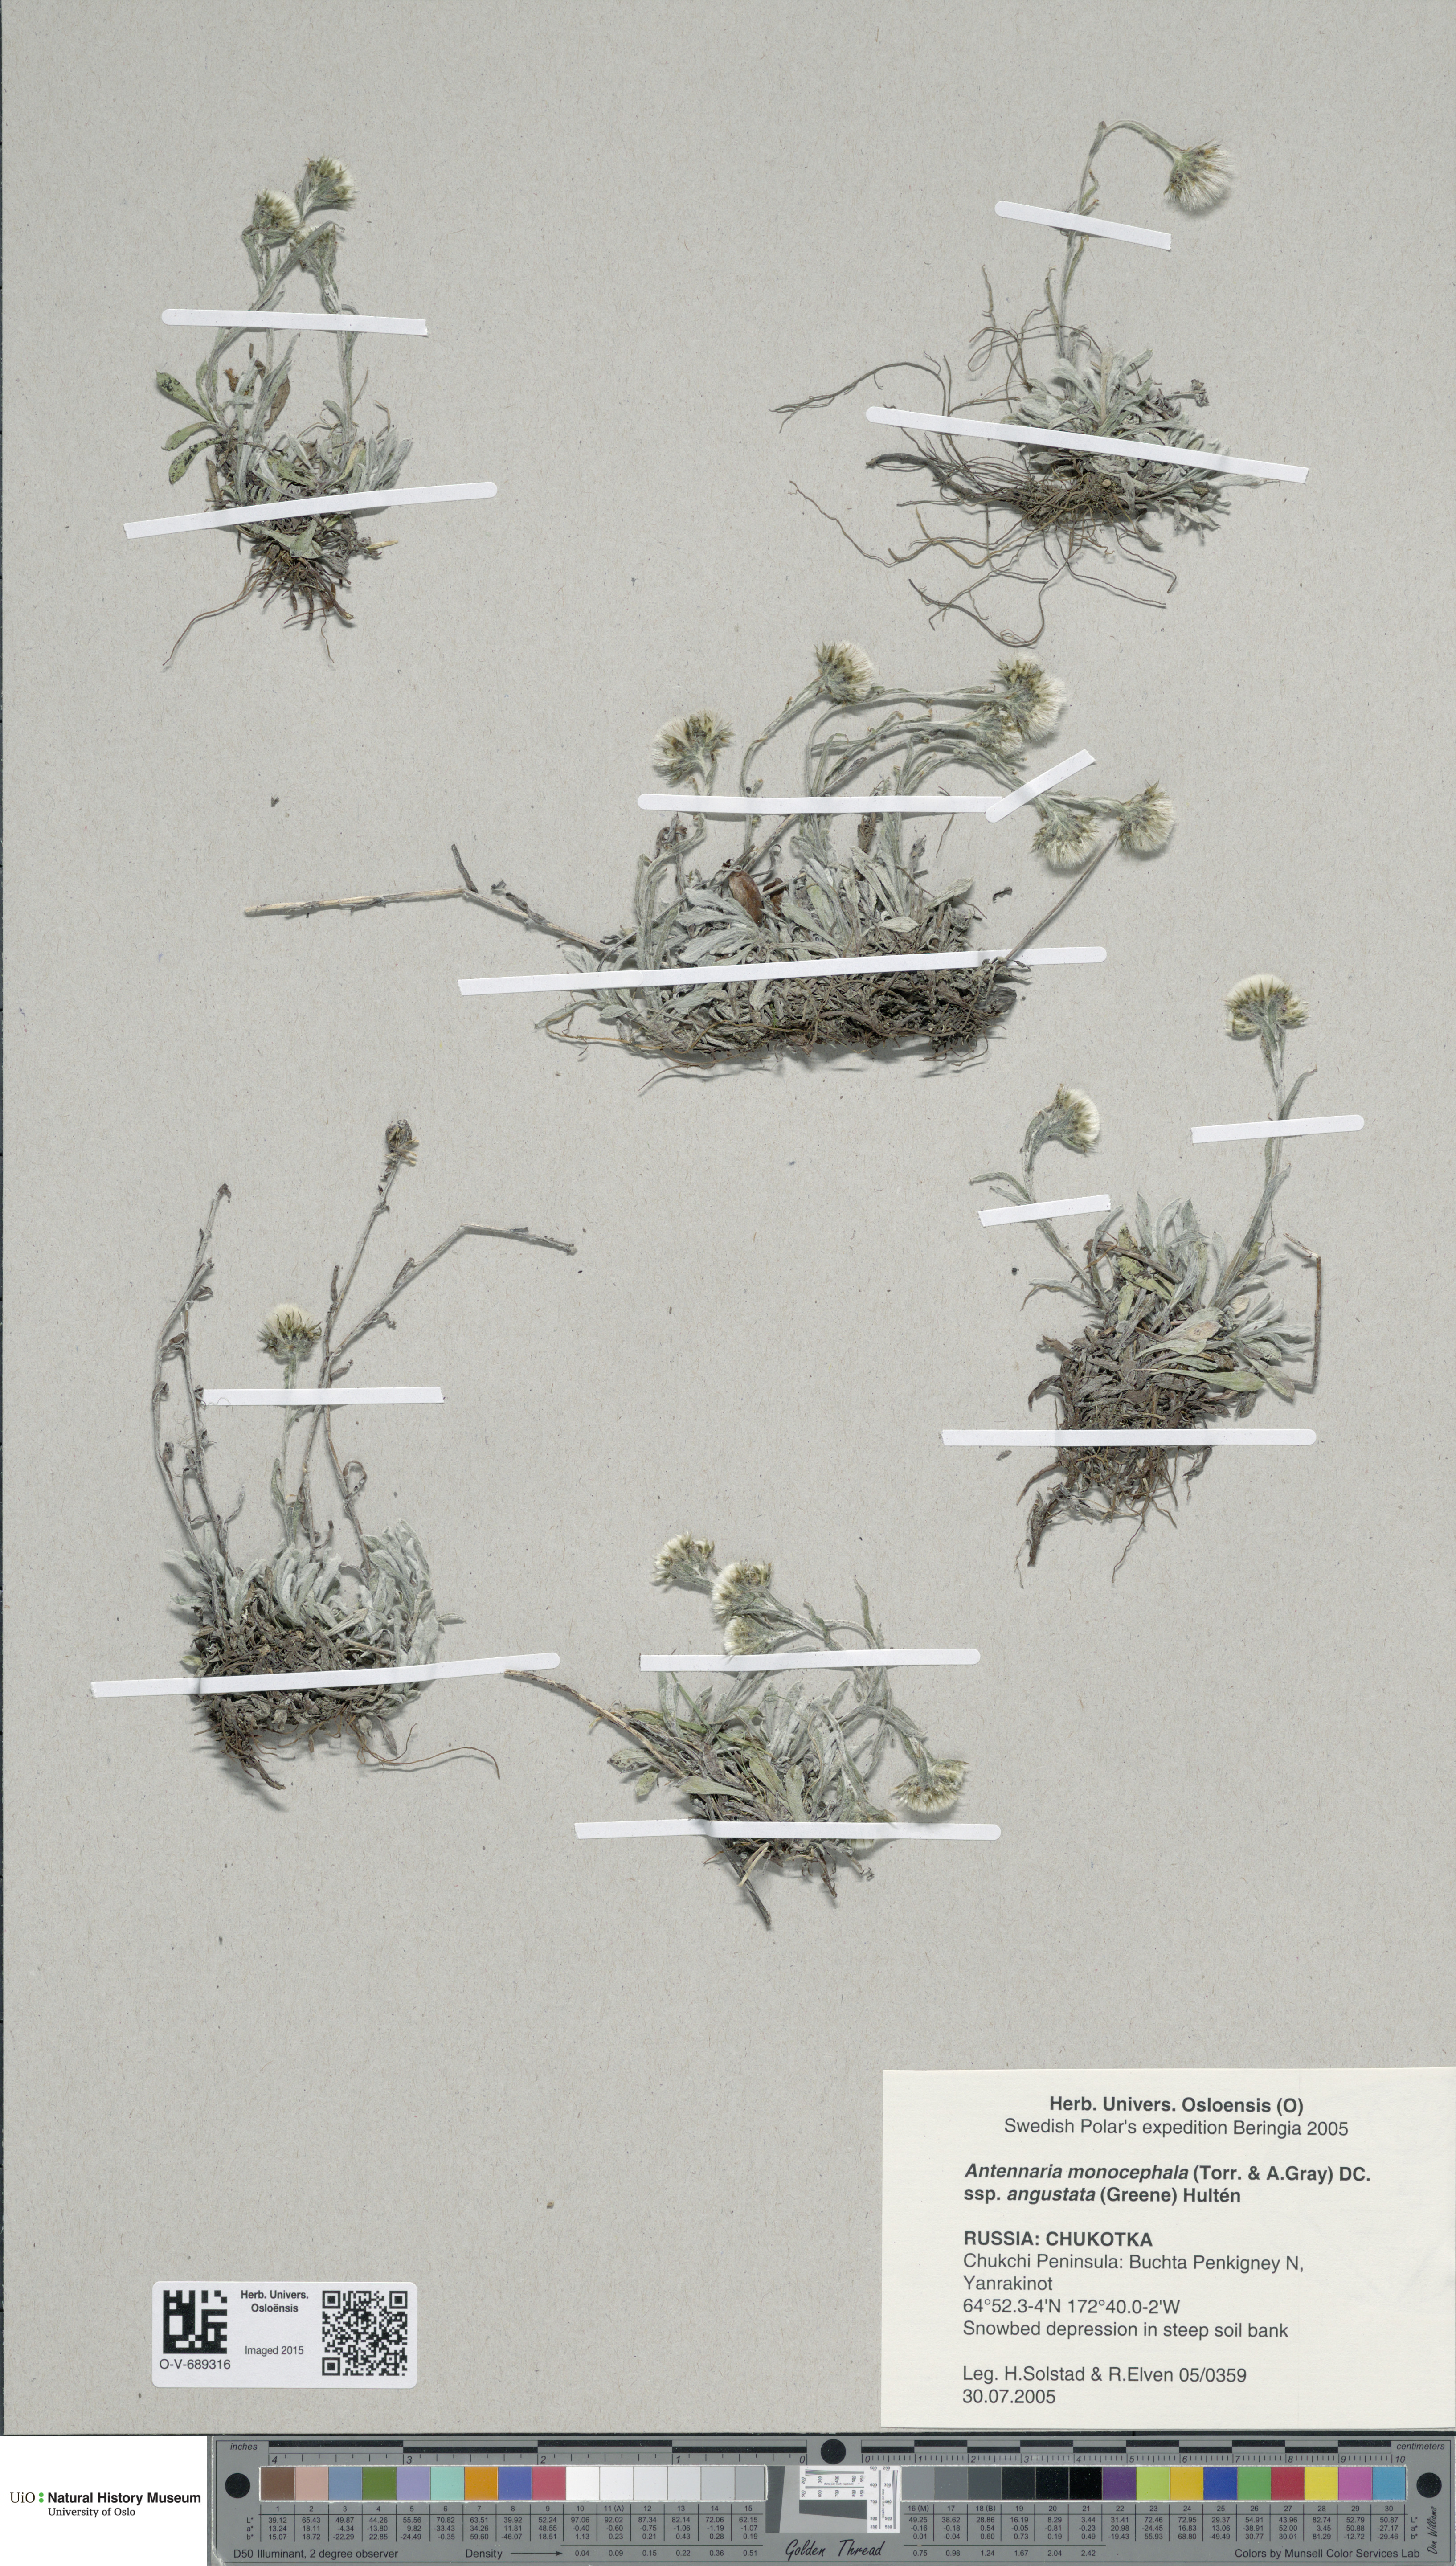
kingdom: Plantae
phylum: Tracheophyta
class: Magnoliopsida
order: Asterales
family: Asteraceae
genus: Antennaria
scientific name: Antennaria monocephala
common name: Pygmy pussytoes
